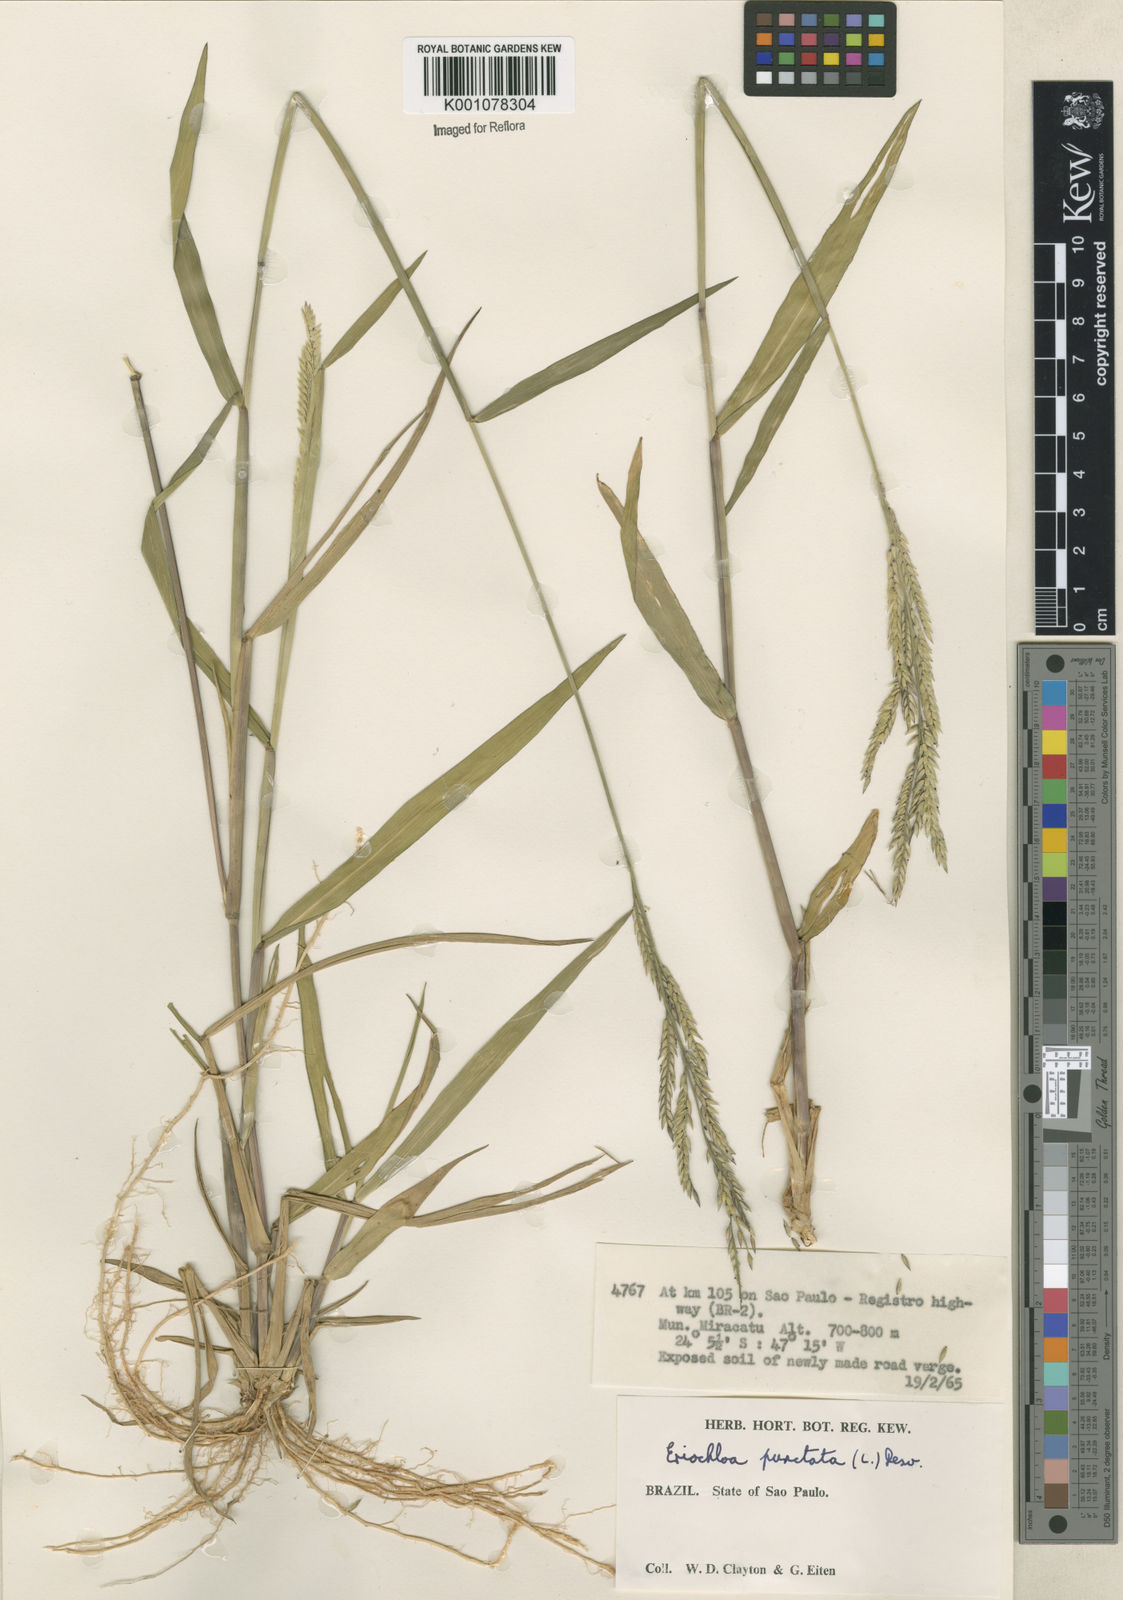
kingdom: Plantae
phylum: Tracheophyta
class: Liliopsida
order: Poales
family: Poaceae
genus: Eriochloa
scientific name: Eriochloa punctata
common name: Louisiana cupgrass
